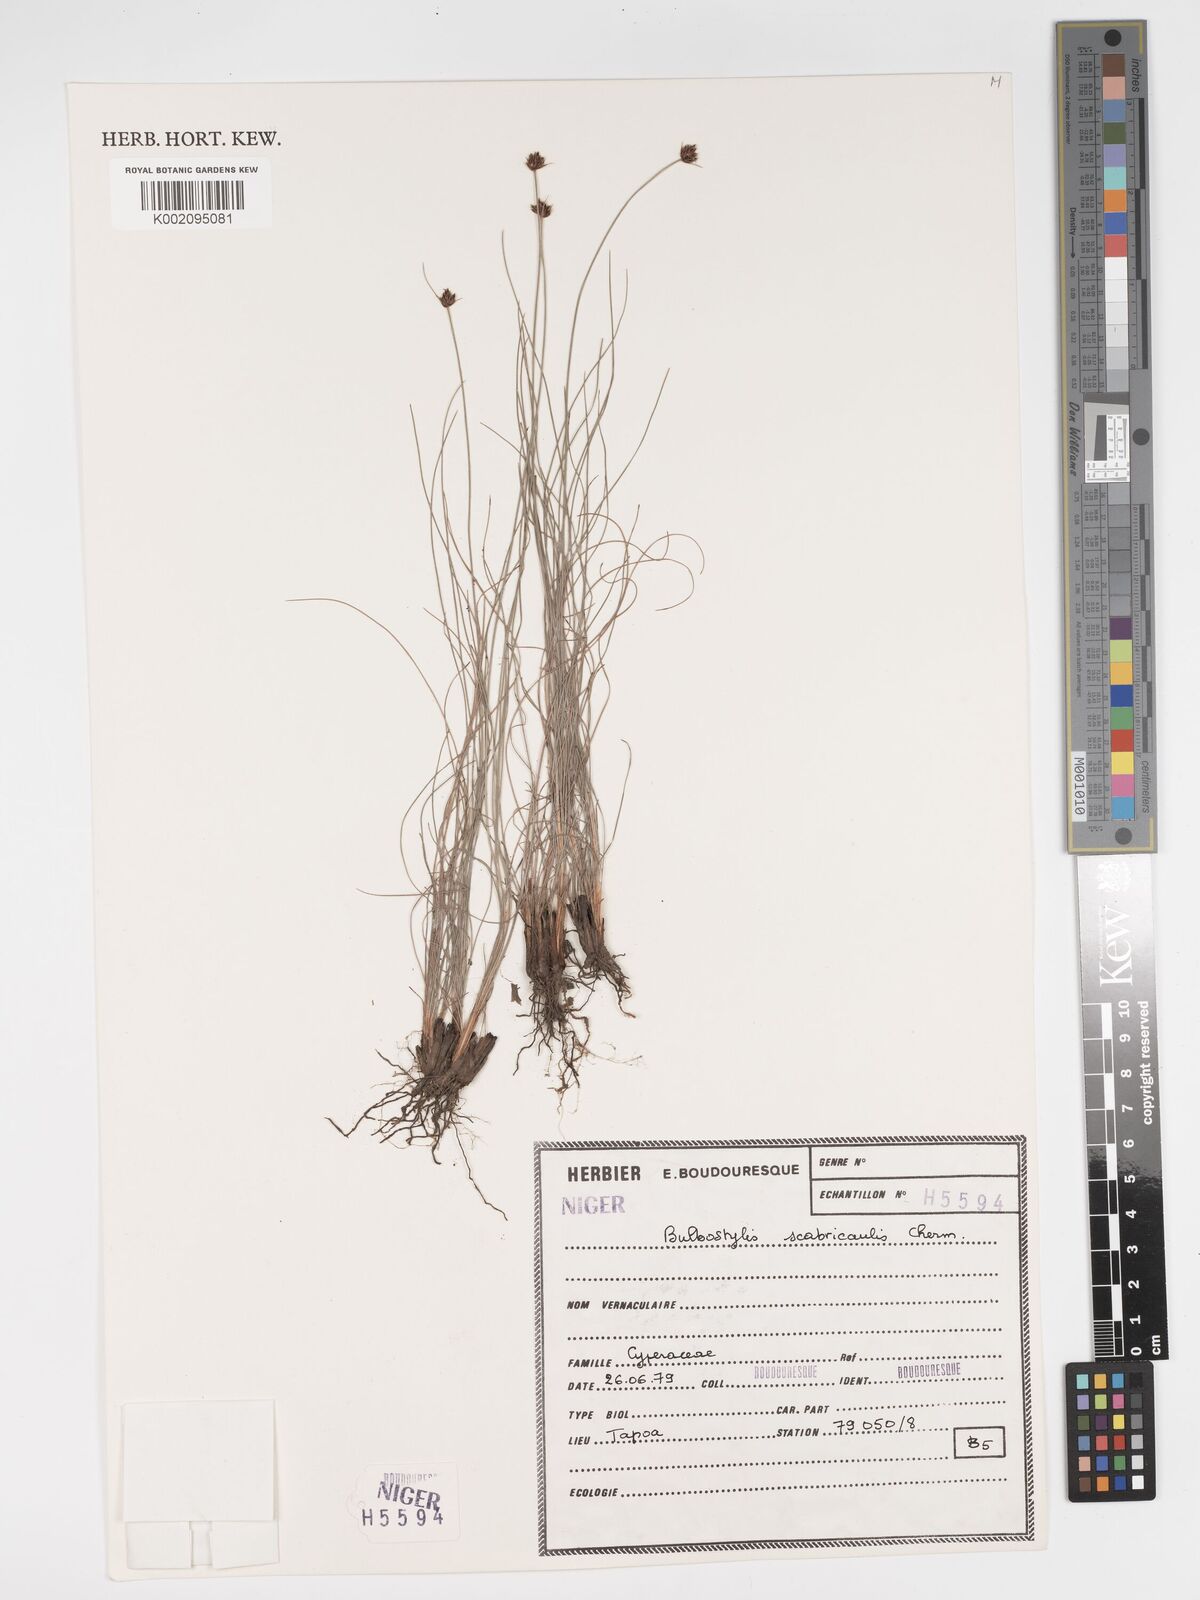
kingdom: Plantae
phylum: Tracheophyta
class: Liliopsida
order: Poales
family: Cyperaceae
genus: Bulbostylis
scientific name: Bulbostylis scabricaulis
